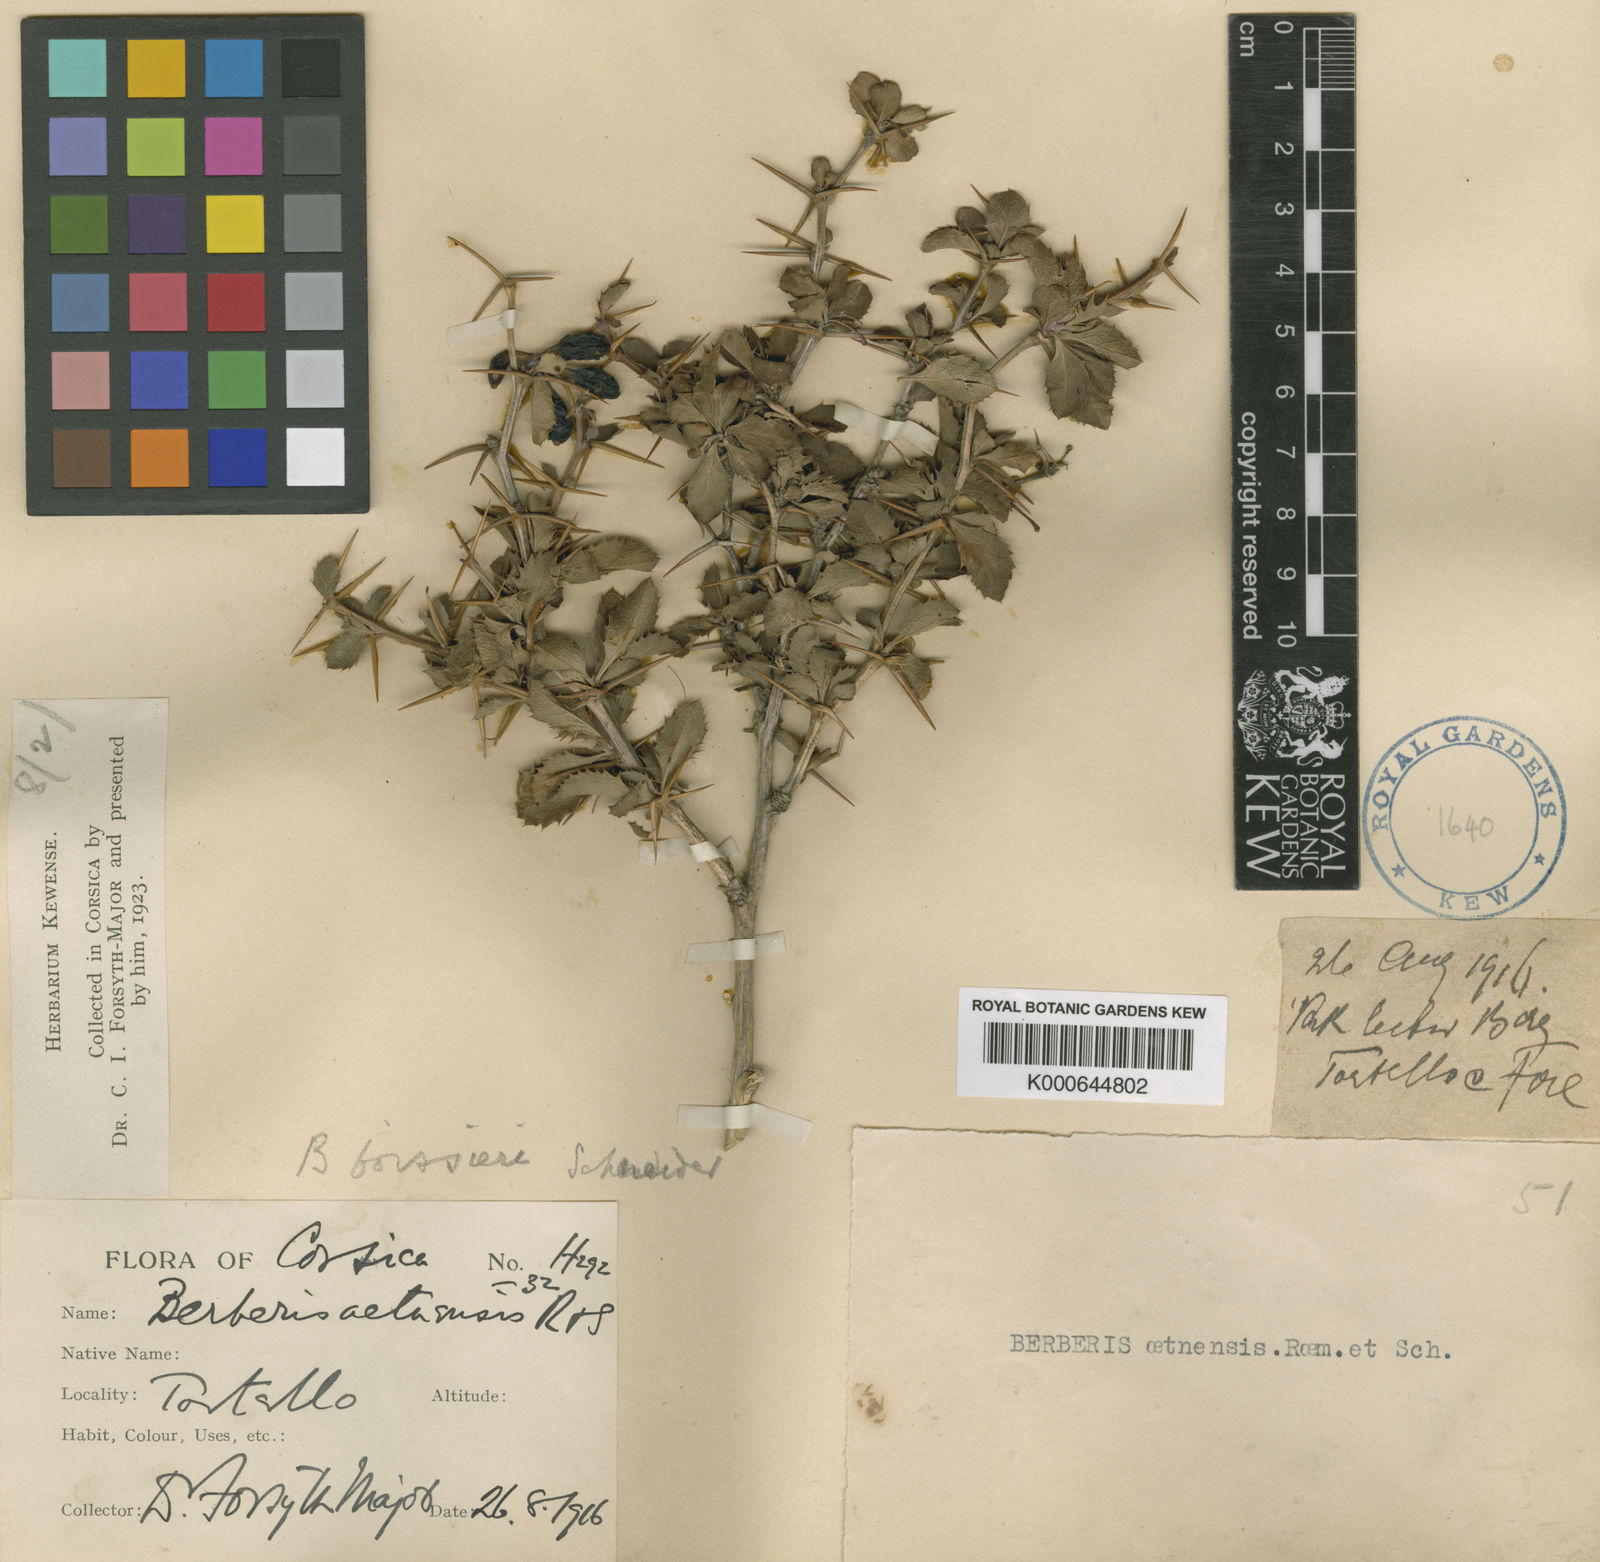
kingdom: Plantae
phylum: Tracheophyta
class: Magnoliopsida
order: Ranunculales
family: Berberidaceae
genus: Berberis
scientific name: Berberis aetnensis
